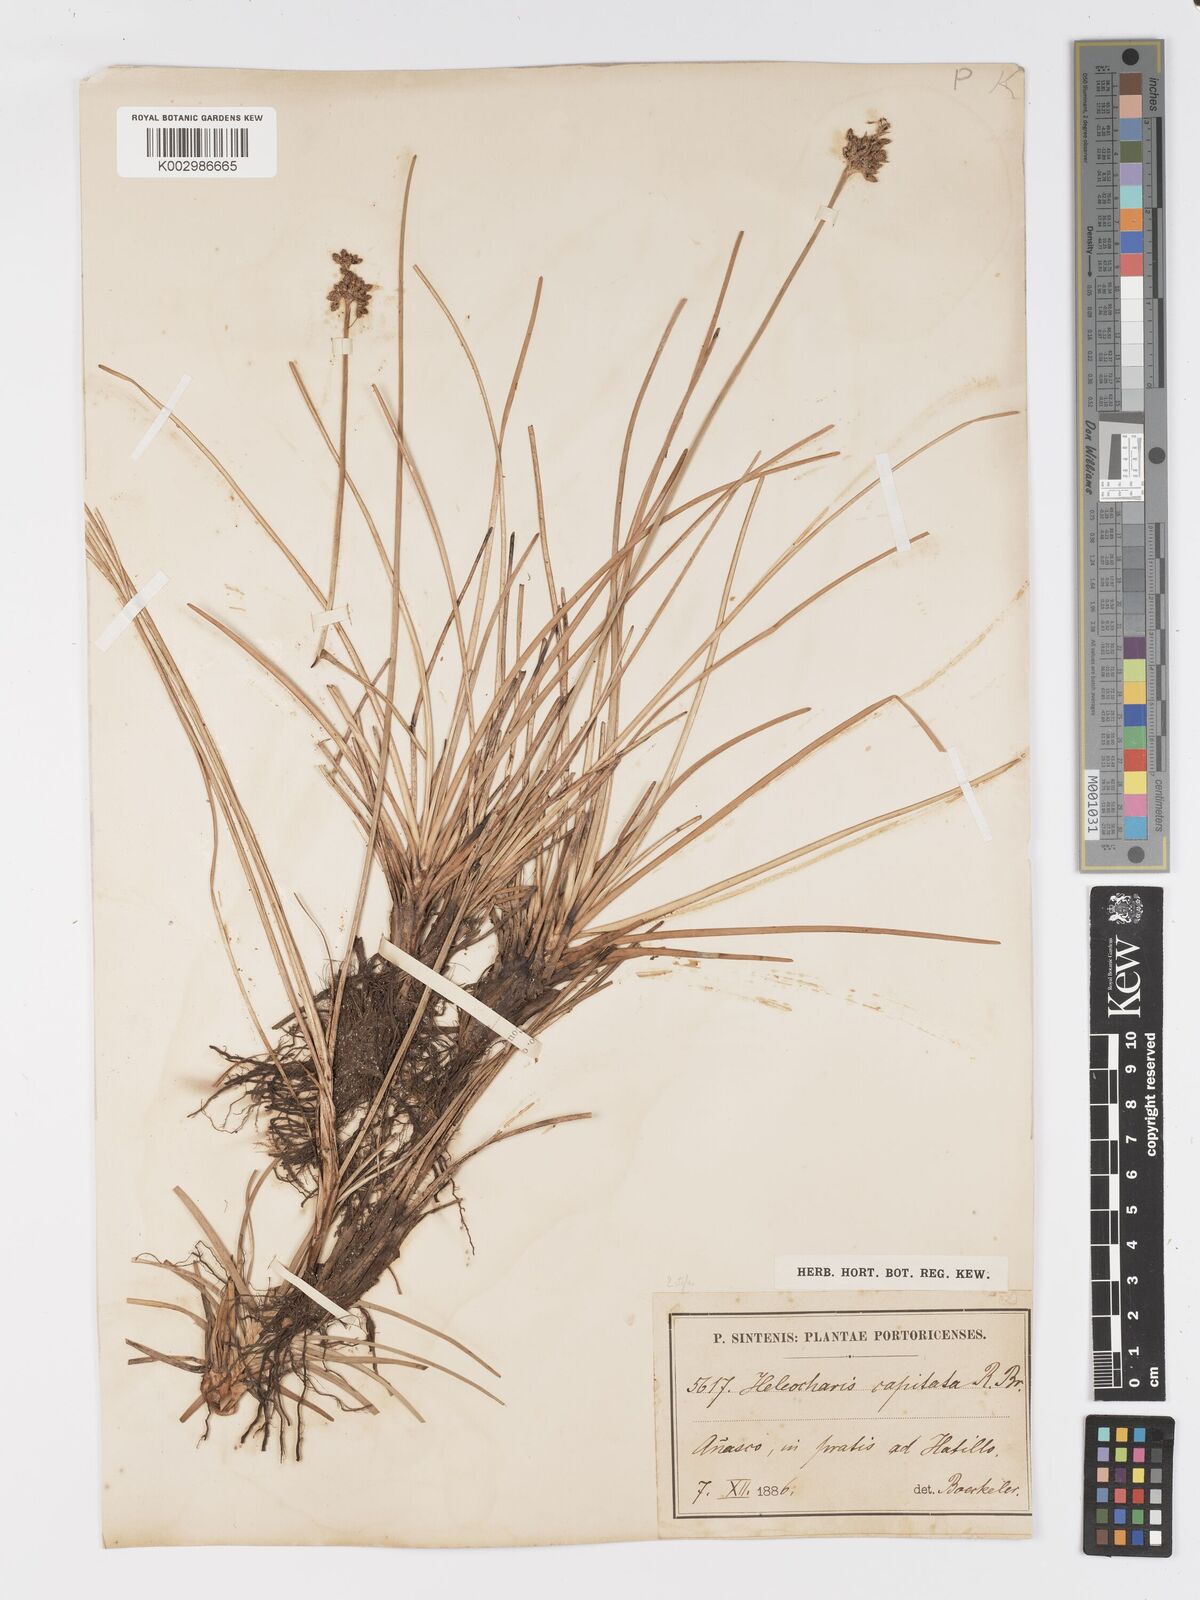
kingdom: Plantae
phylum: Tracheophyta
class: Liliopsida
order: Poales
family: Cyperaceae
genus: Fimbristylis
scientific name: Fimbristylis cymosa
